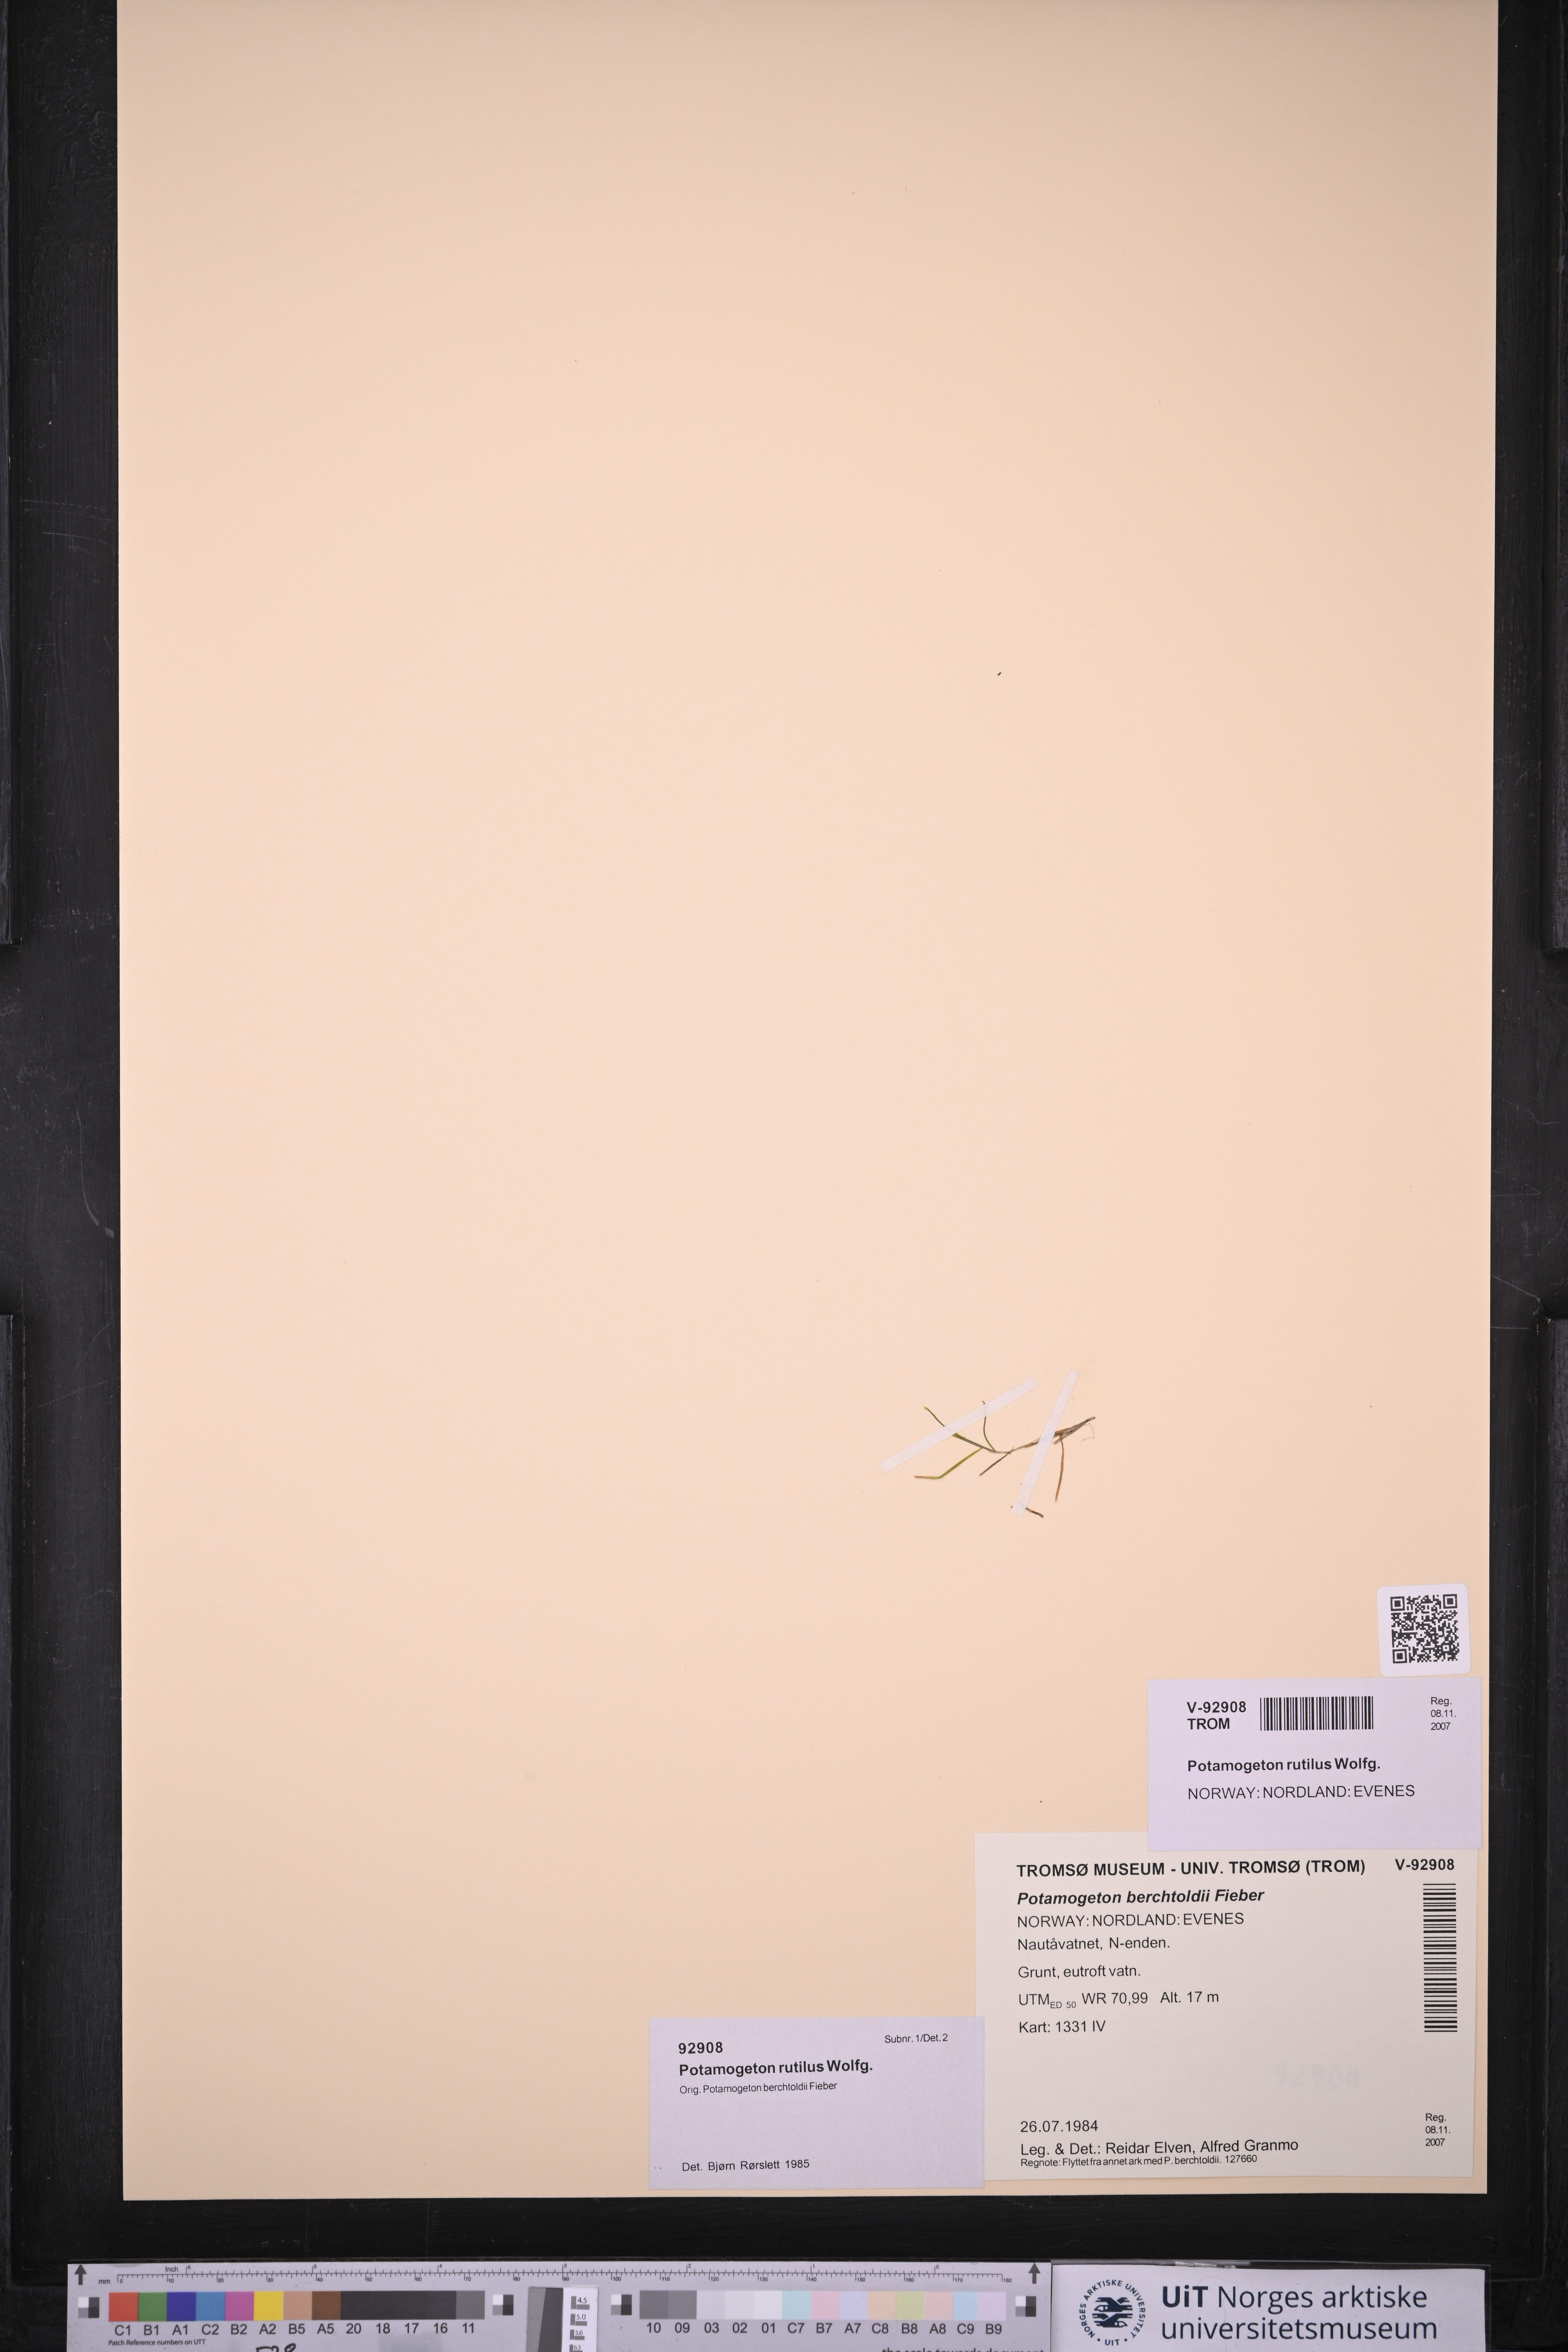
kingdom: Plantae
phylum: Tracheophyta
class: Liliopsida
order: Alismatales
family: Potamogetonaceae
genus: Potamogeton
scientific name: Potamogeton rutilus
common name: Shetland pondweed
